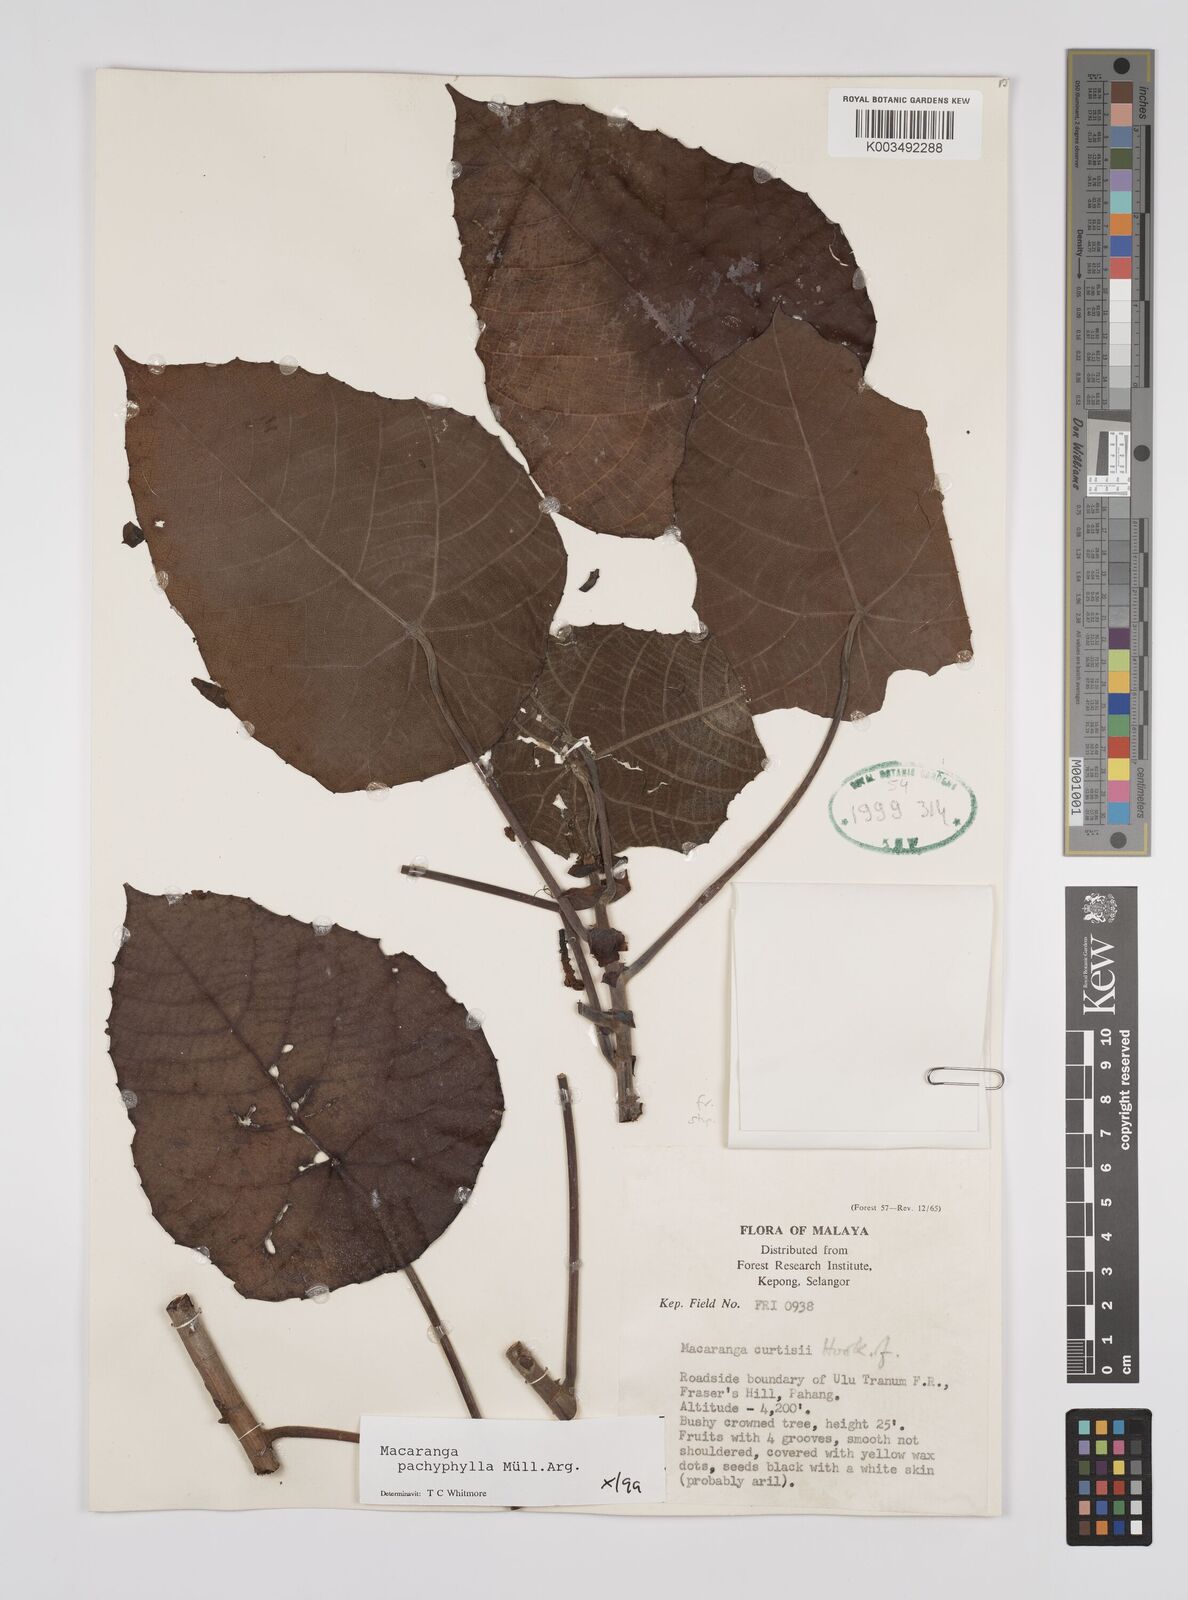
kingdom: Plantae
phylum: Tracheophyta
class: Magnoliopsida
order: Malpighiales
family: Euphorbiaceae
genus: Macaranga
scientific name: Macaranga pachyphylla
